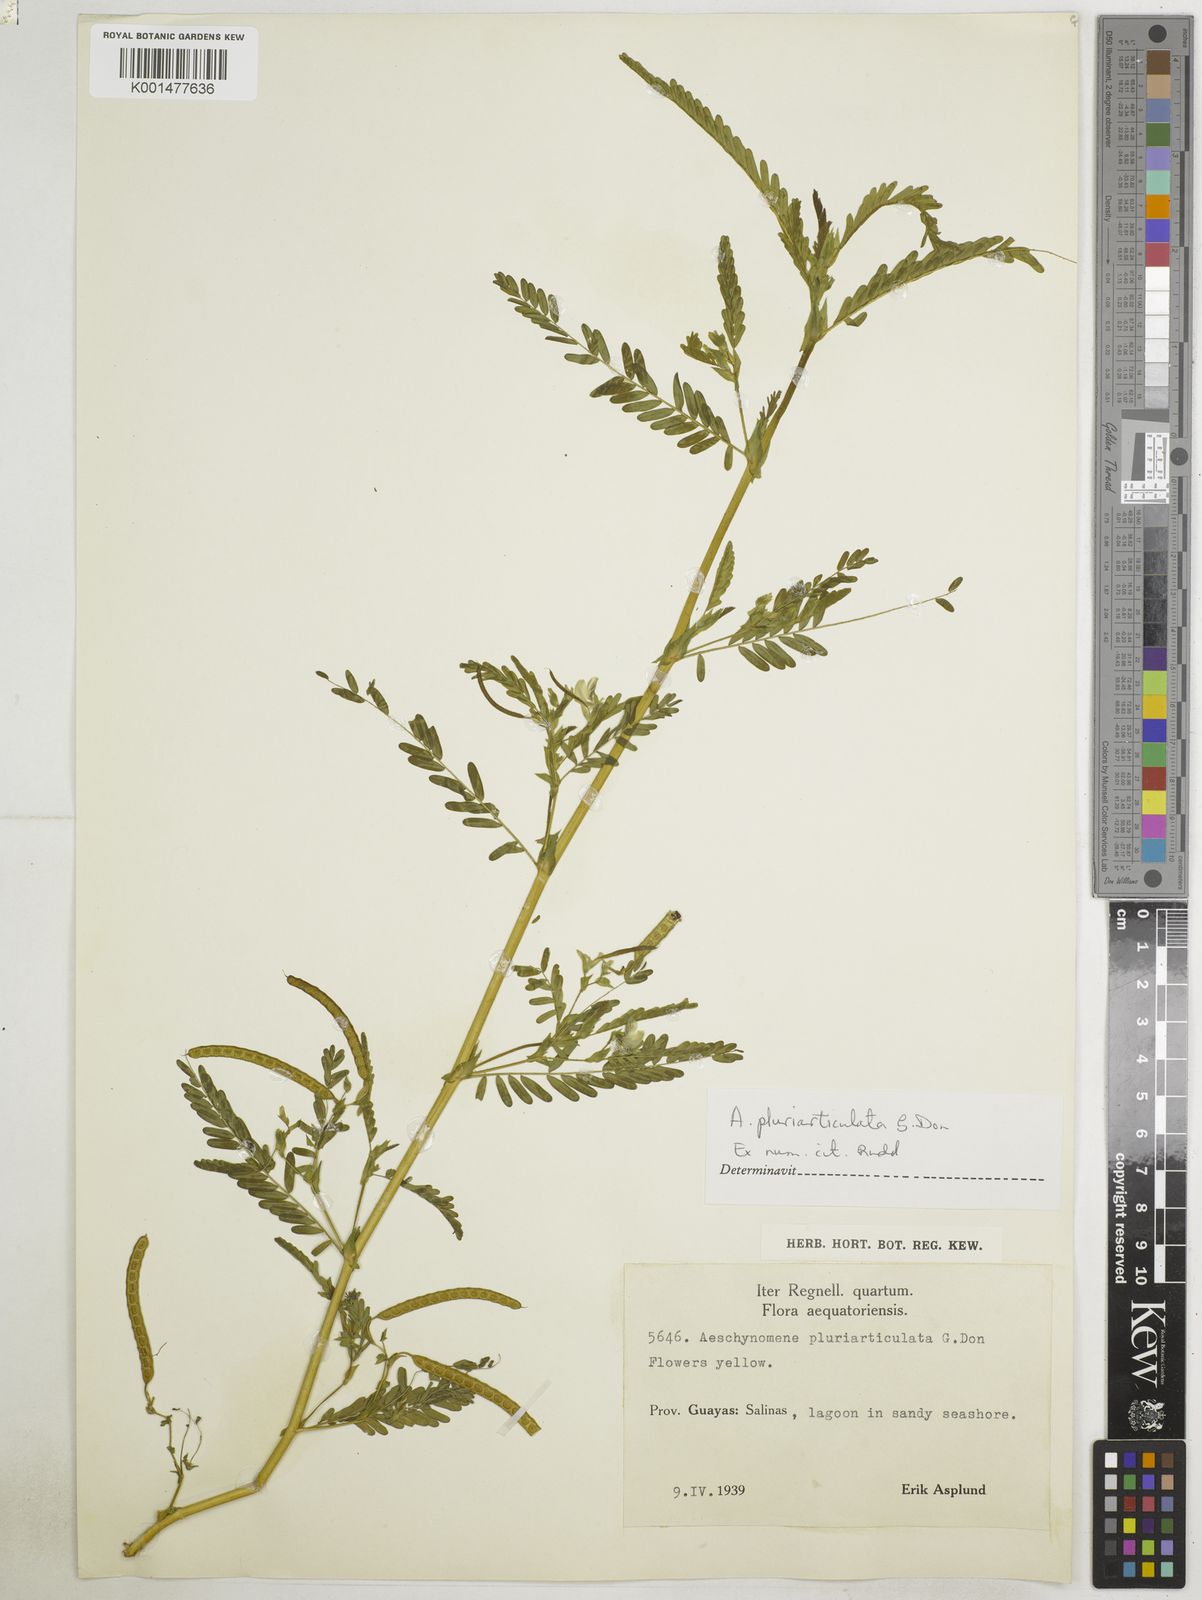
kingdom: Plantae
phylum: Tracheophyta
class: Magnoliopsida
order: Fabales
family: Fabaceae
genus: Aeschynomene
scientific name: Aeschynomene pluriarticulata
